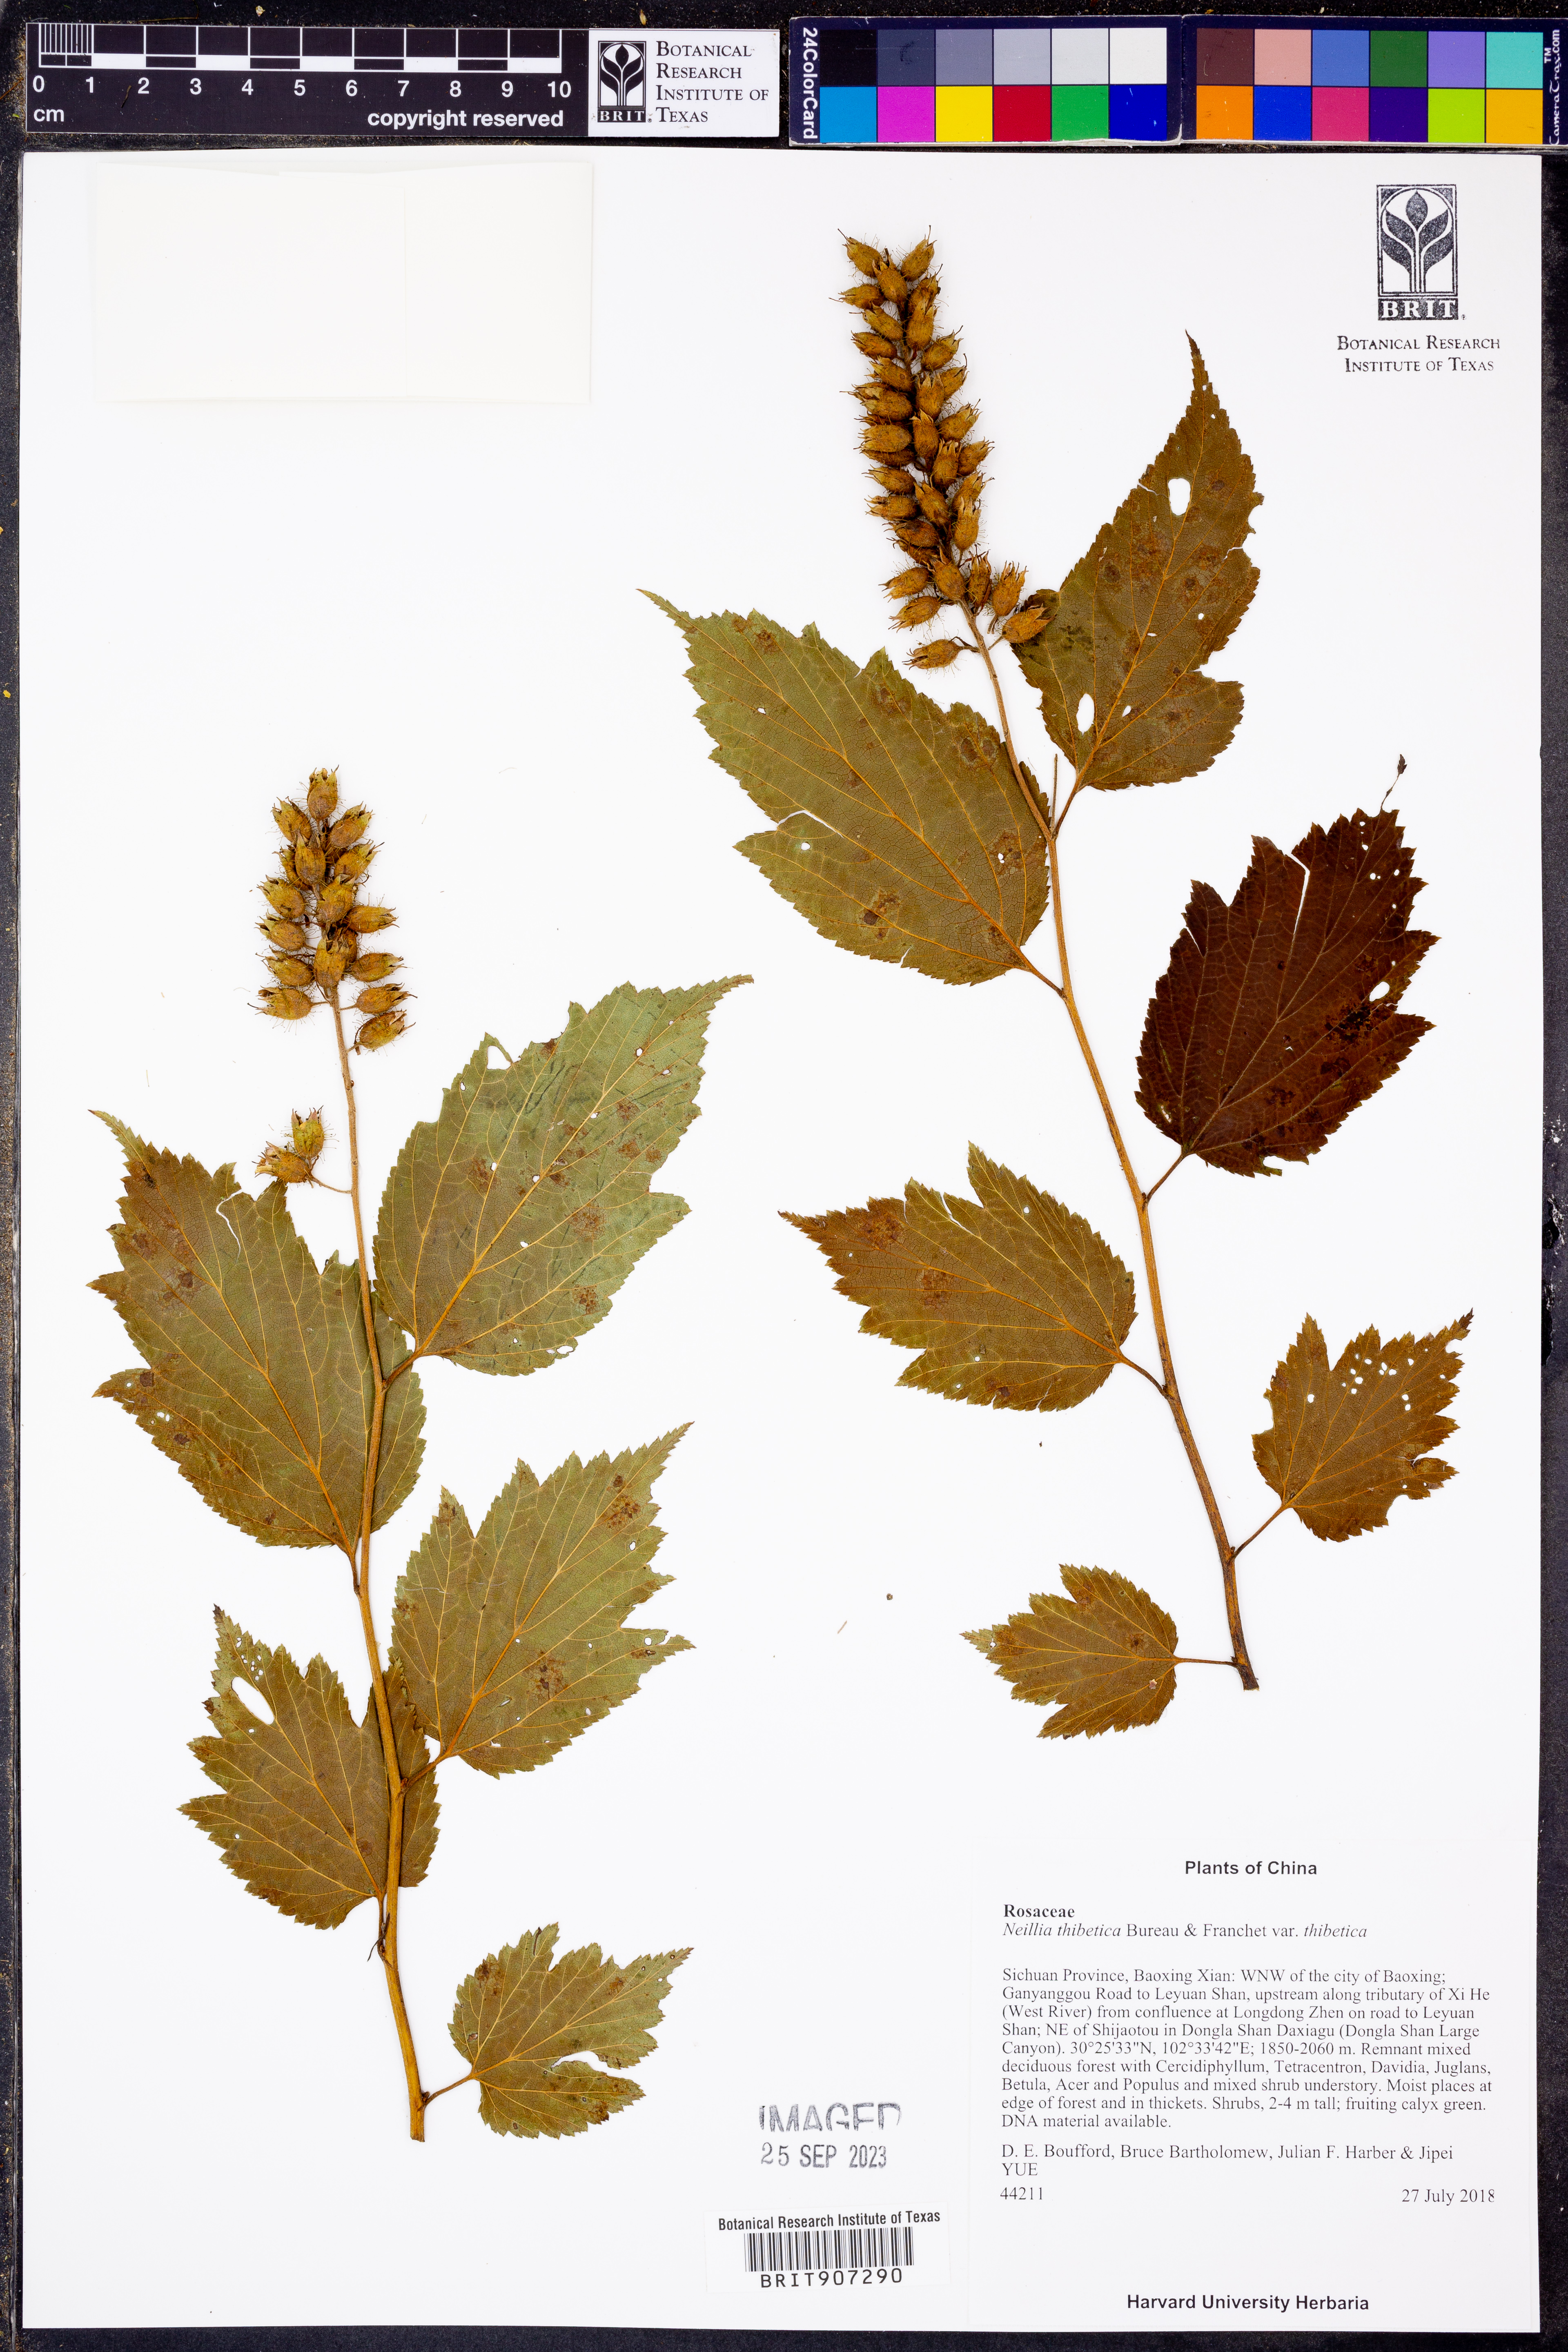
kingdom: Plantae
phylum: Tracheophyta
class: Magnoliopsida
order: Rosales
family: Rosaceae
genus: Neillia
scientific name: Neillia thibetica
